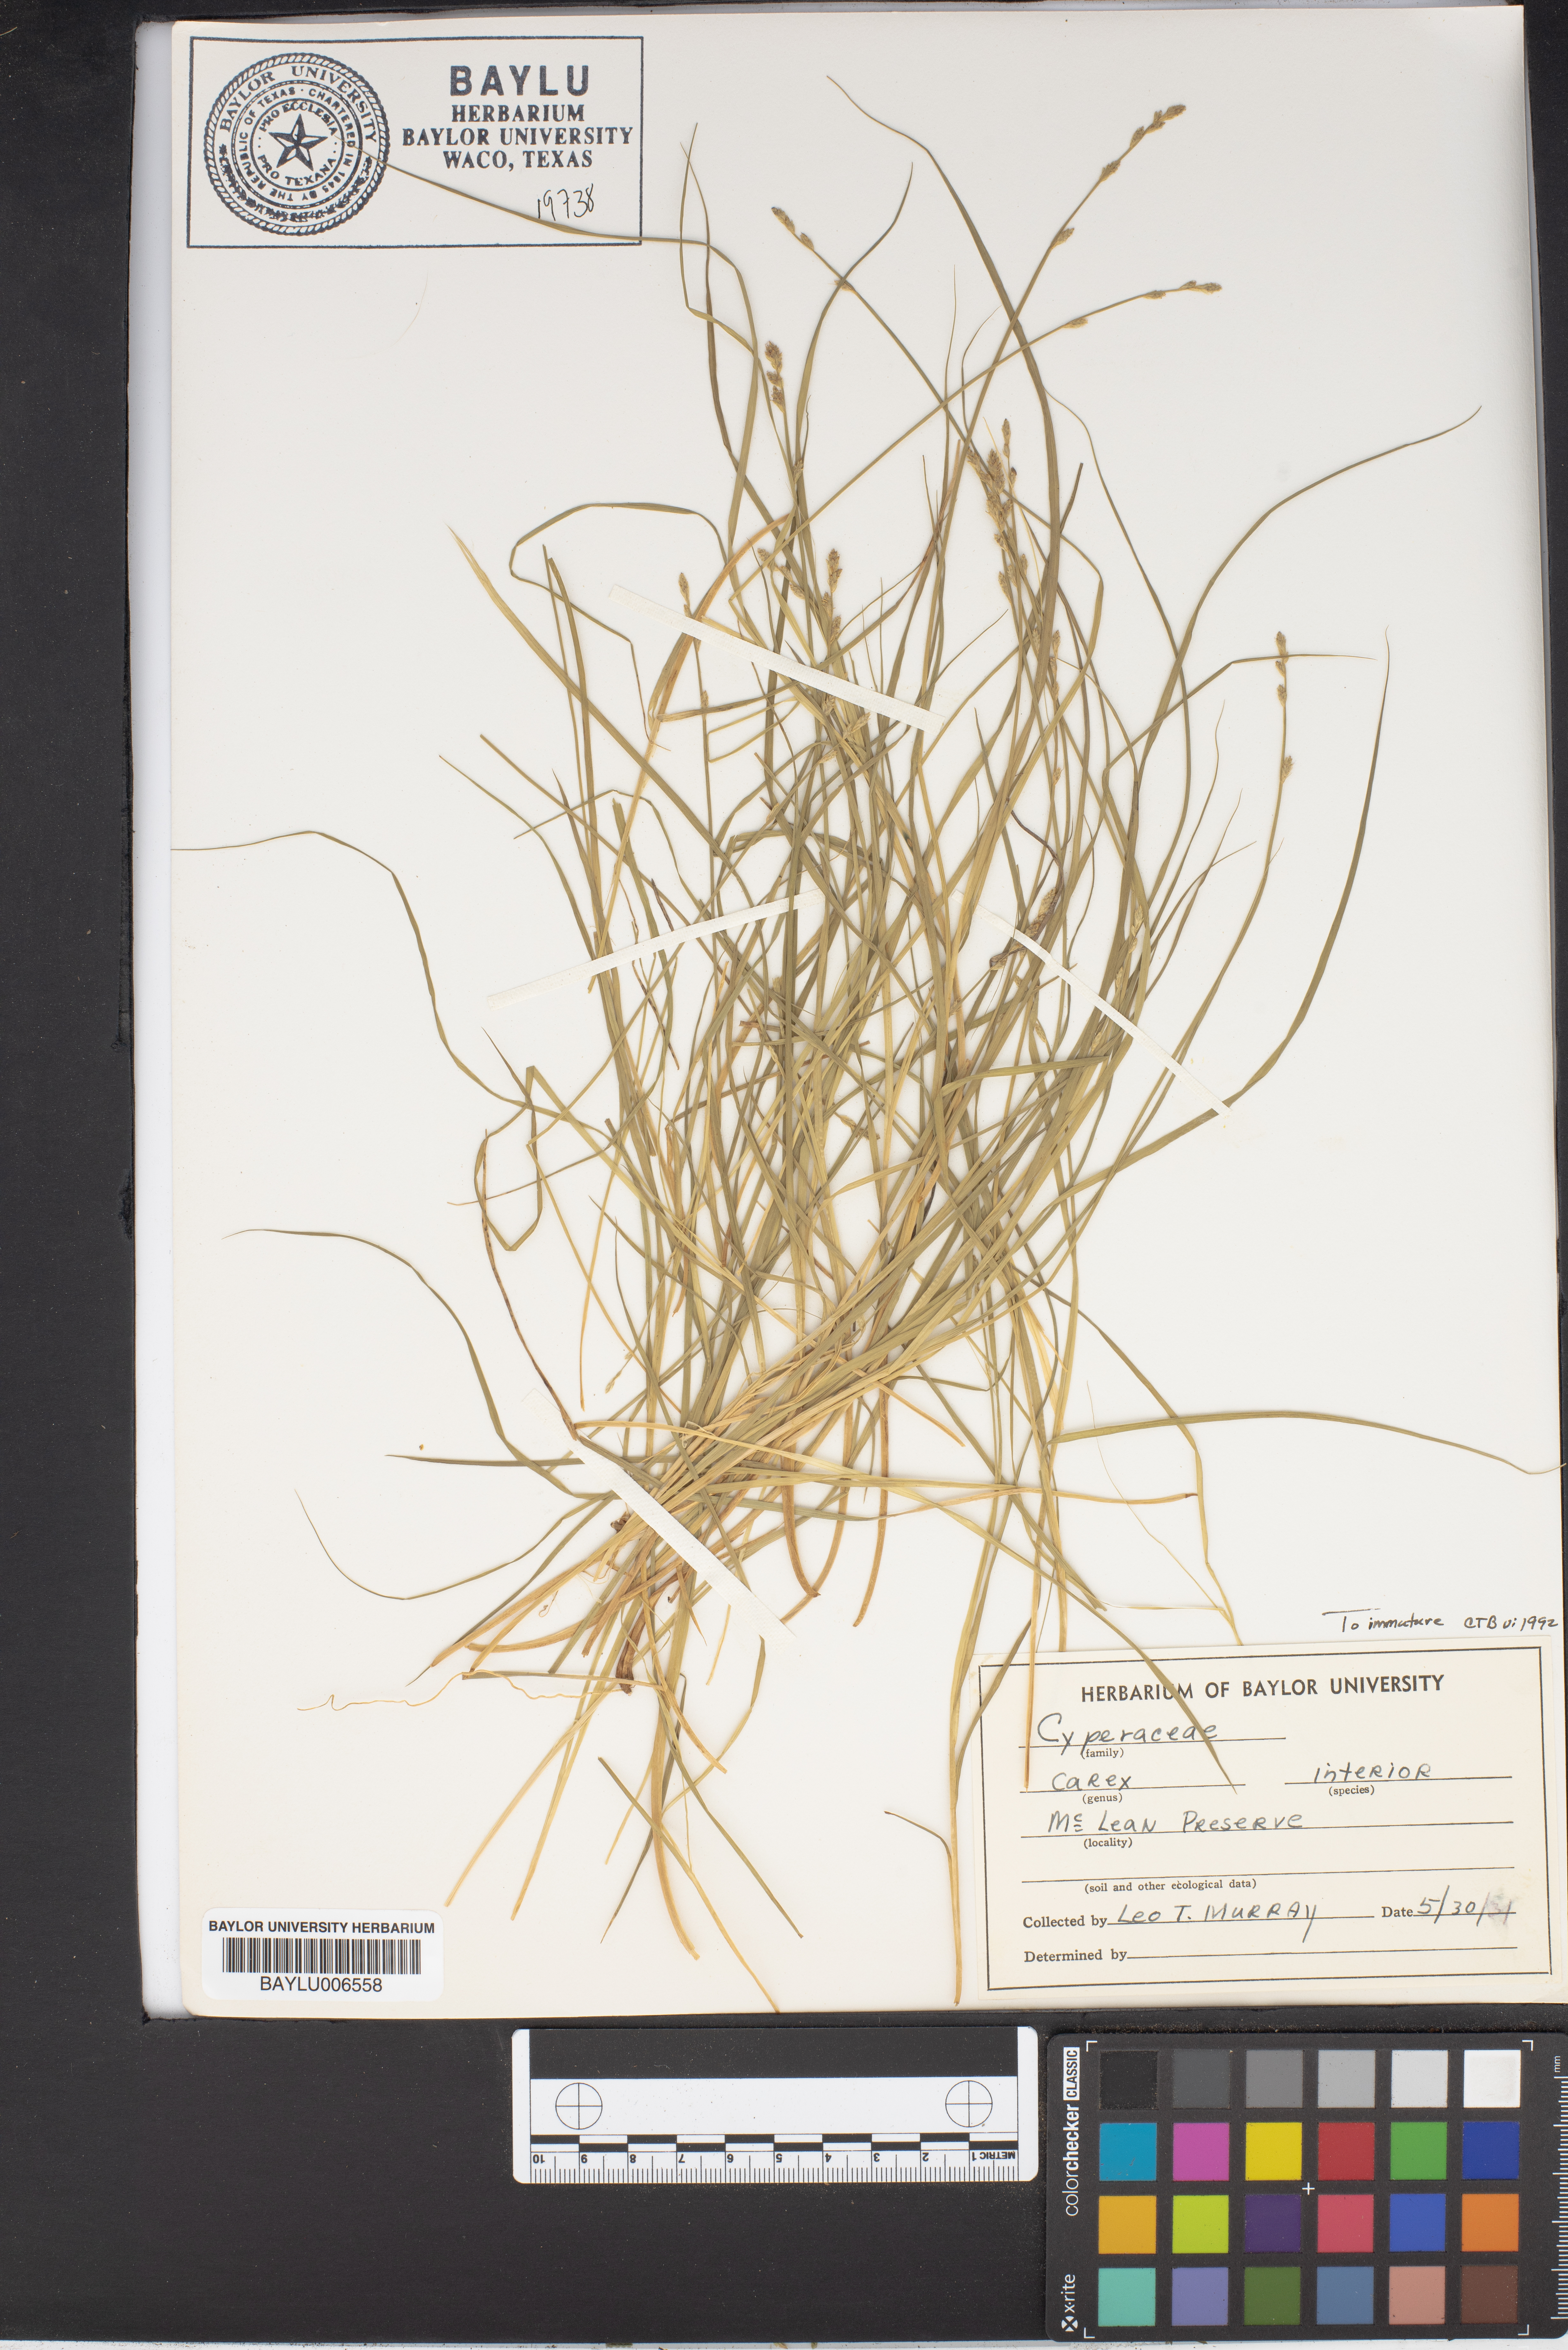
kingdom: Plantae
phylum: Tracheophyta
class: Liliopsida
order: Poales
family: Cyperaceae
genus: Carex
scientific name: Carex interior
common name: Inland sedge
